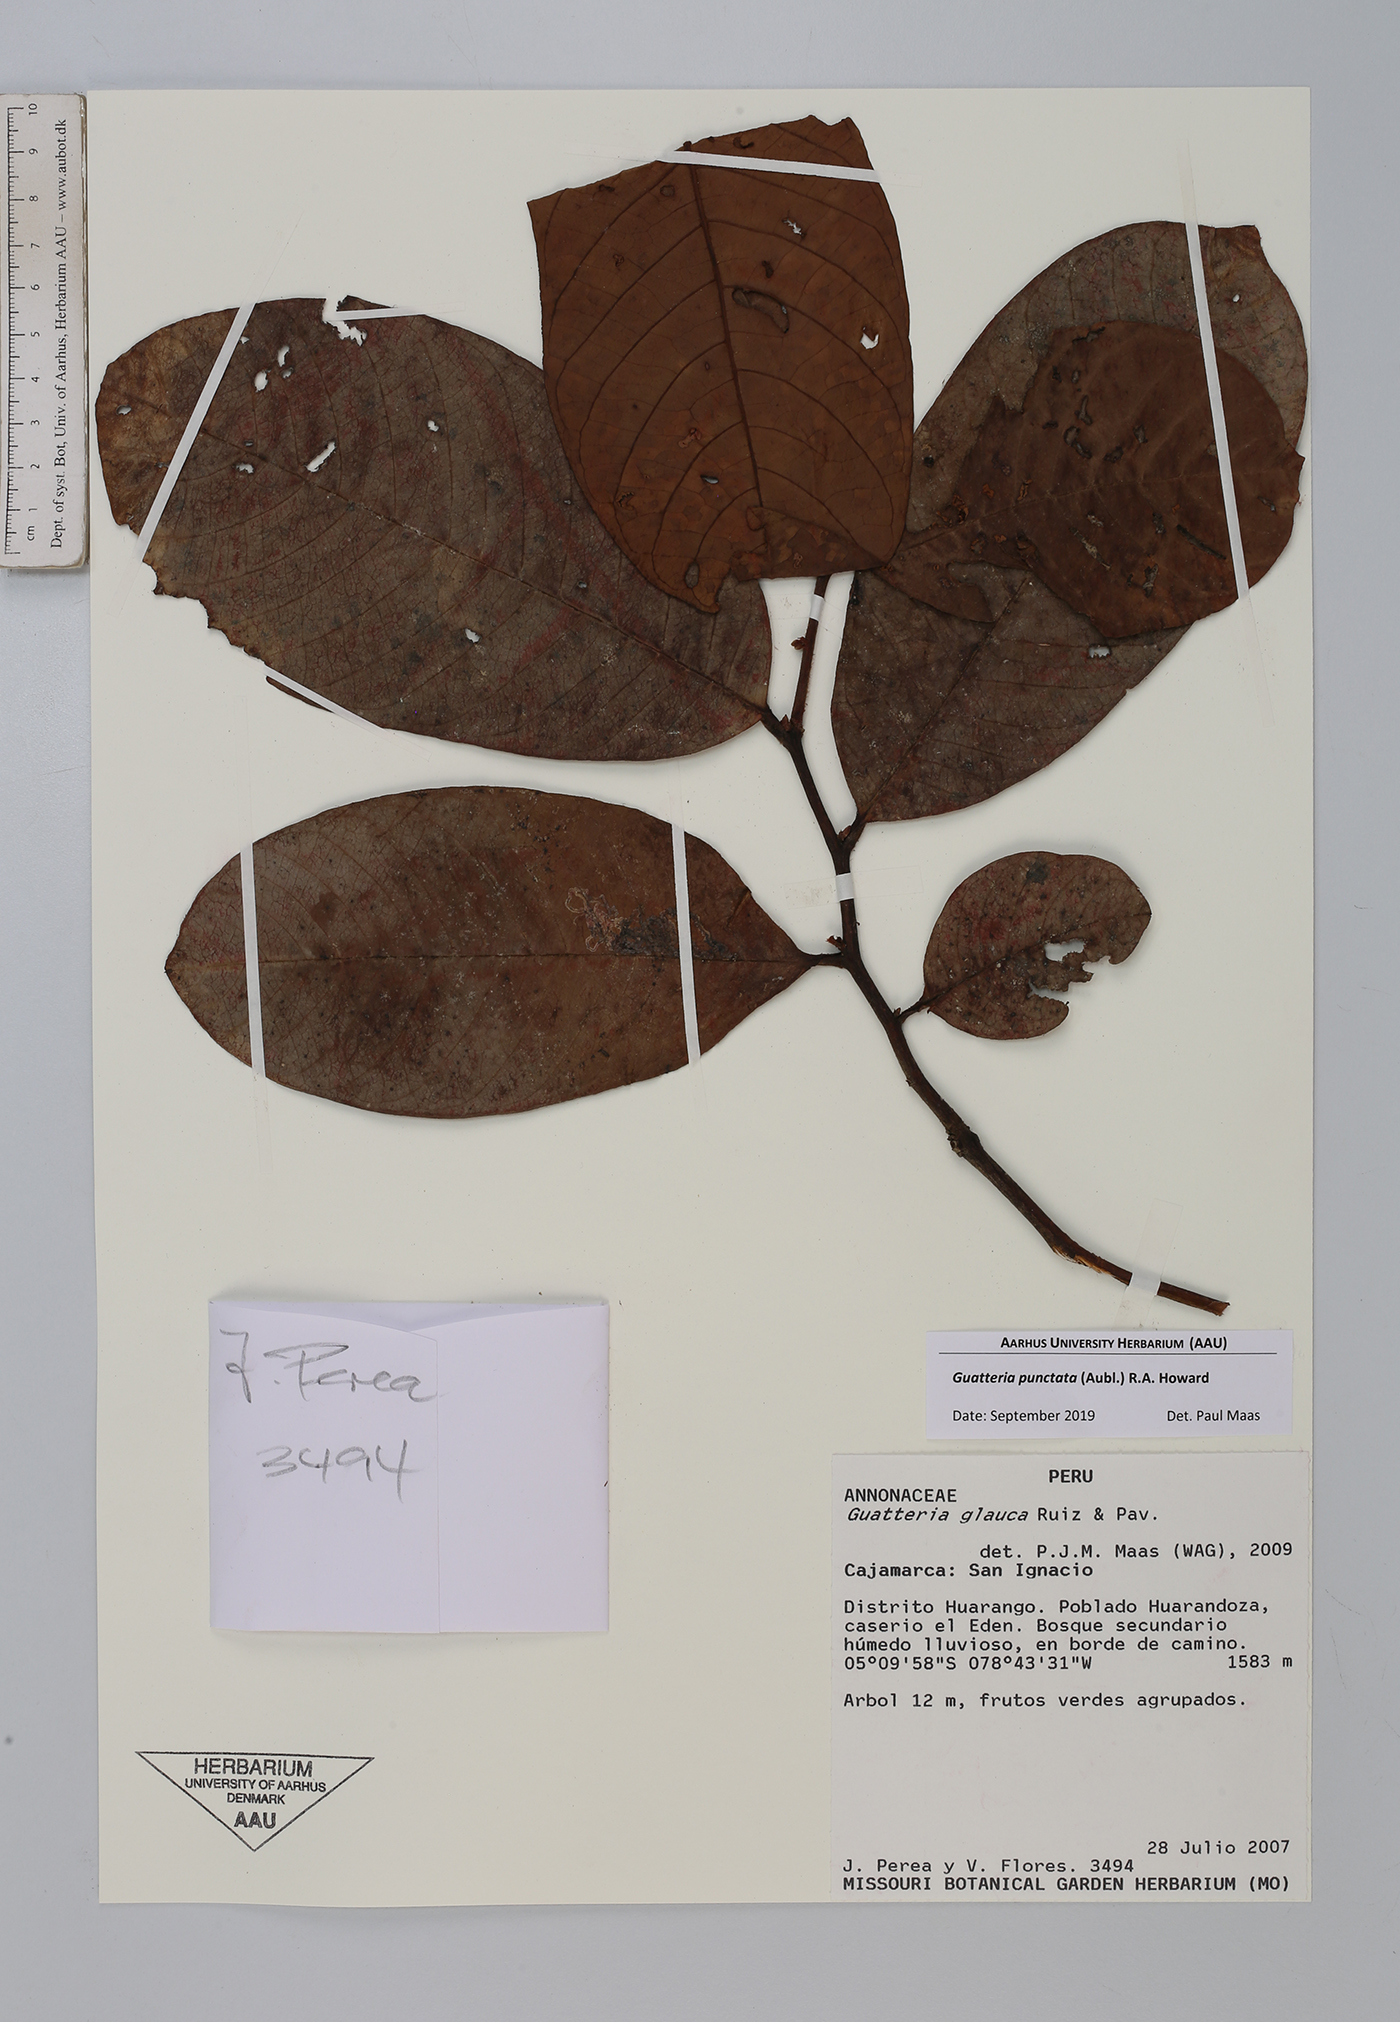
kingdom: Plantae
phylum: Tracheophyta
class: Magnoliopsida
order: Magnoliales
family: Annonaceae
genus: Guatteria
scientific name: Guatteria punctata
